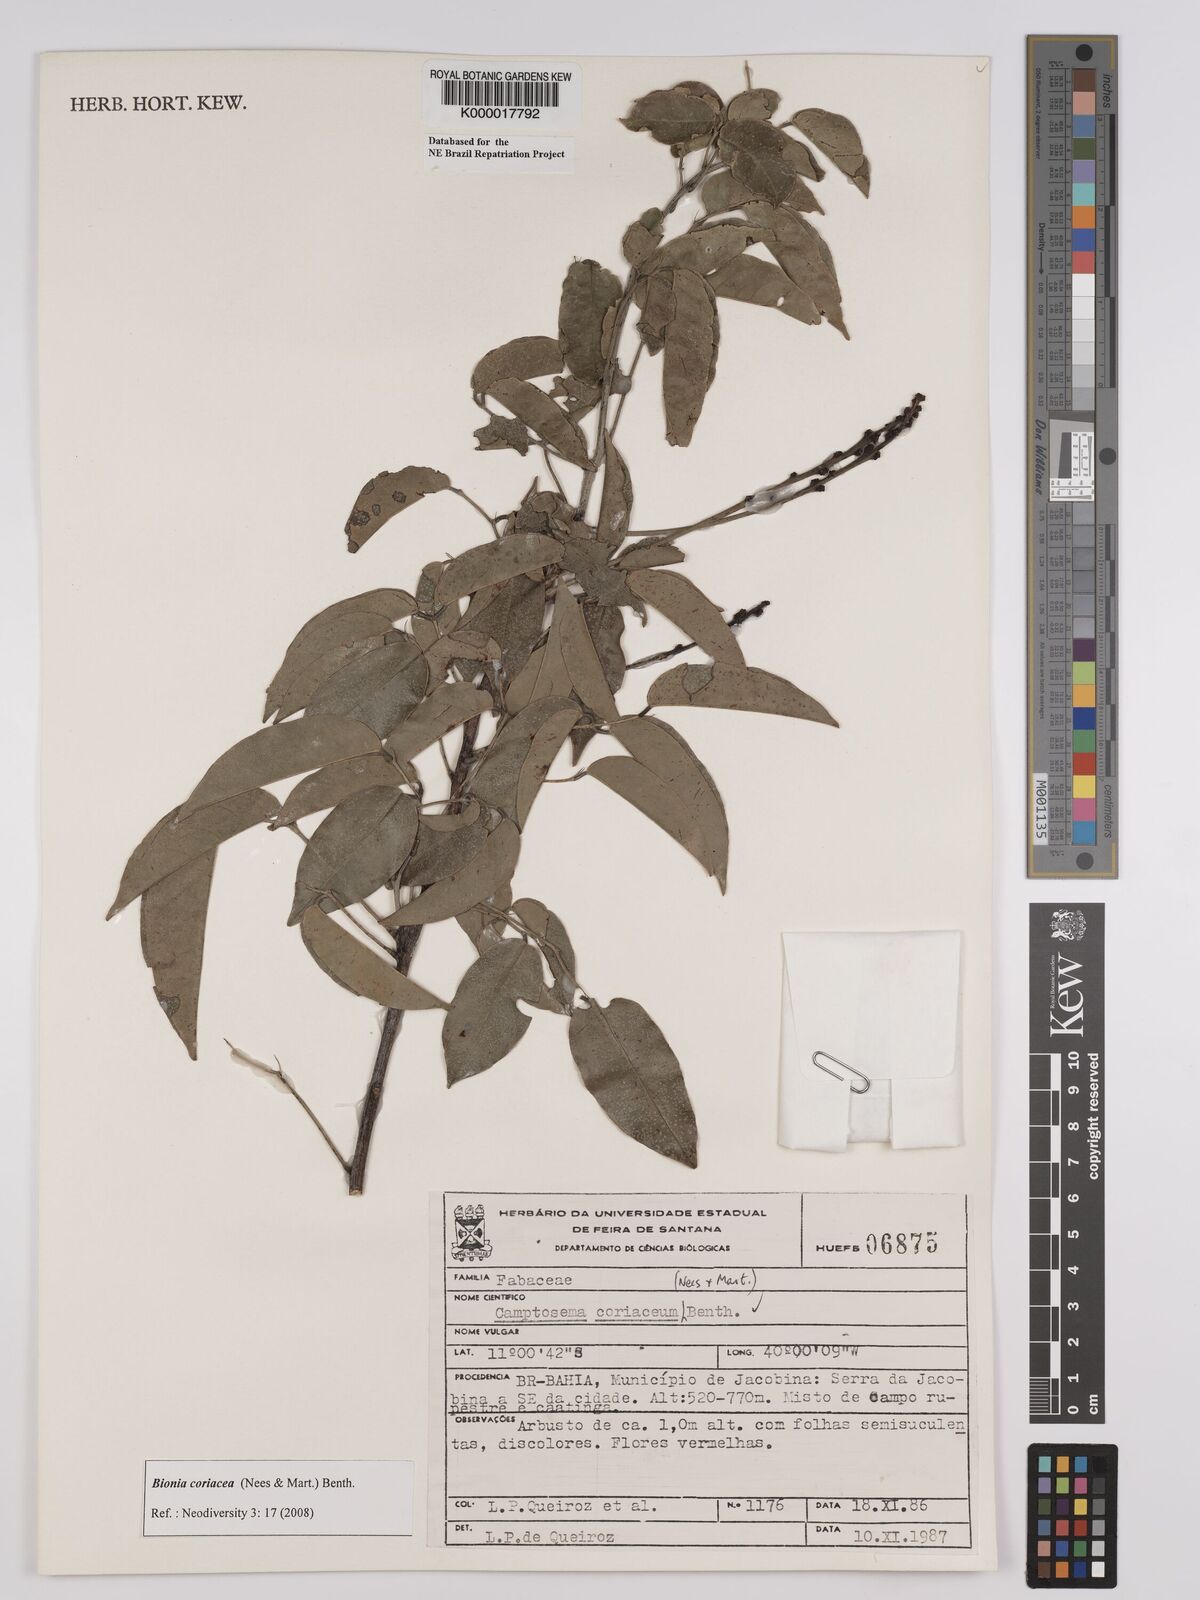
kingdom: Plantae
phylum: Tracheophyta
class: Magnoliopsida
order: Fabales
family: Fabaceae
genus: Camptosema
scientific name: Camptosema coriaceum
